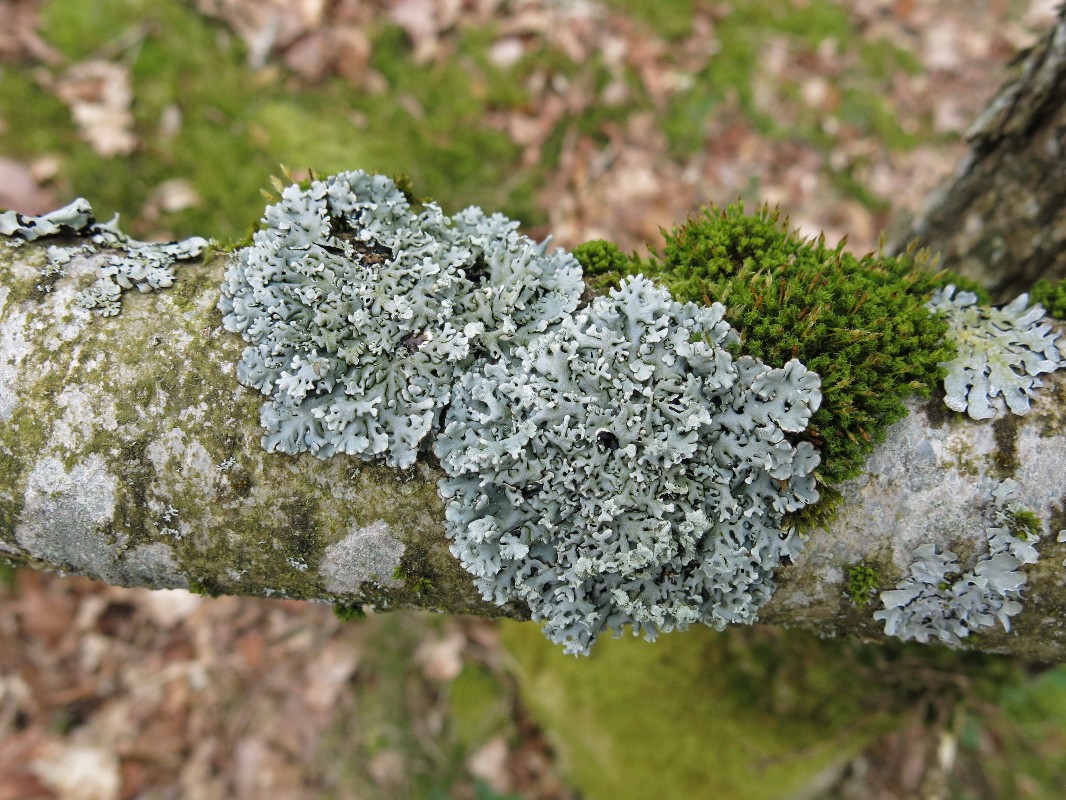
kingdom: Fungi
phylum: Ascomycota
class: Lecanoromycetes
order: Lecanorales
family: Parmeliaceae
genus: Hypogymnia
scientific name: Hypogymnia physodes
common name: almindelig kvistlav
